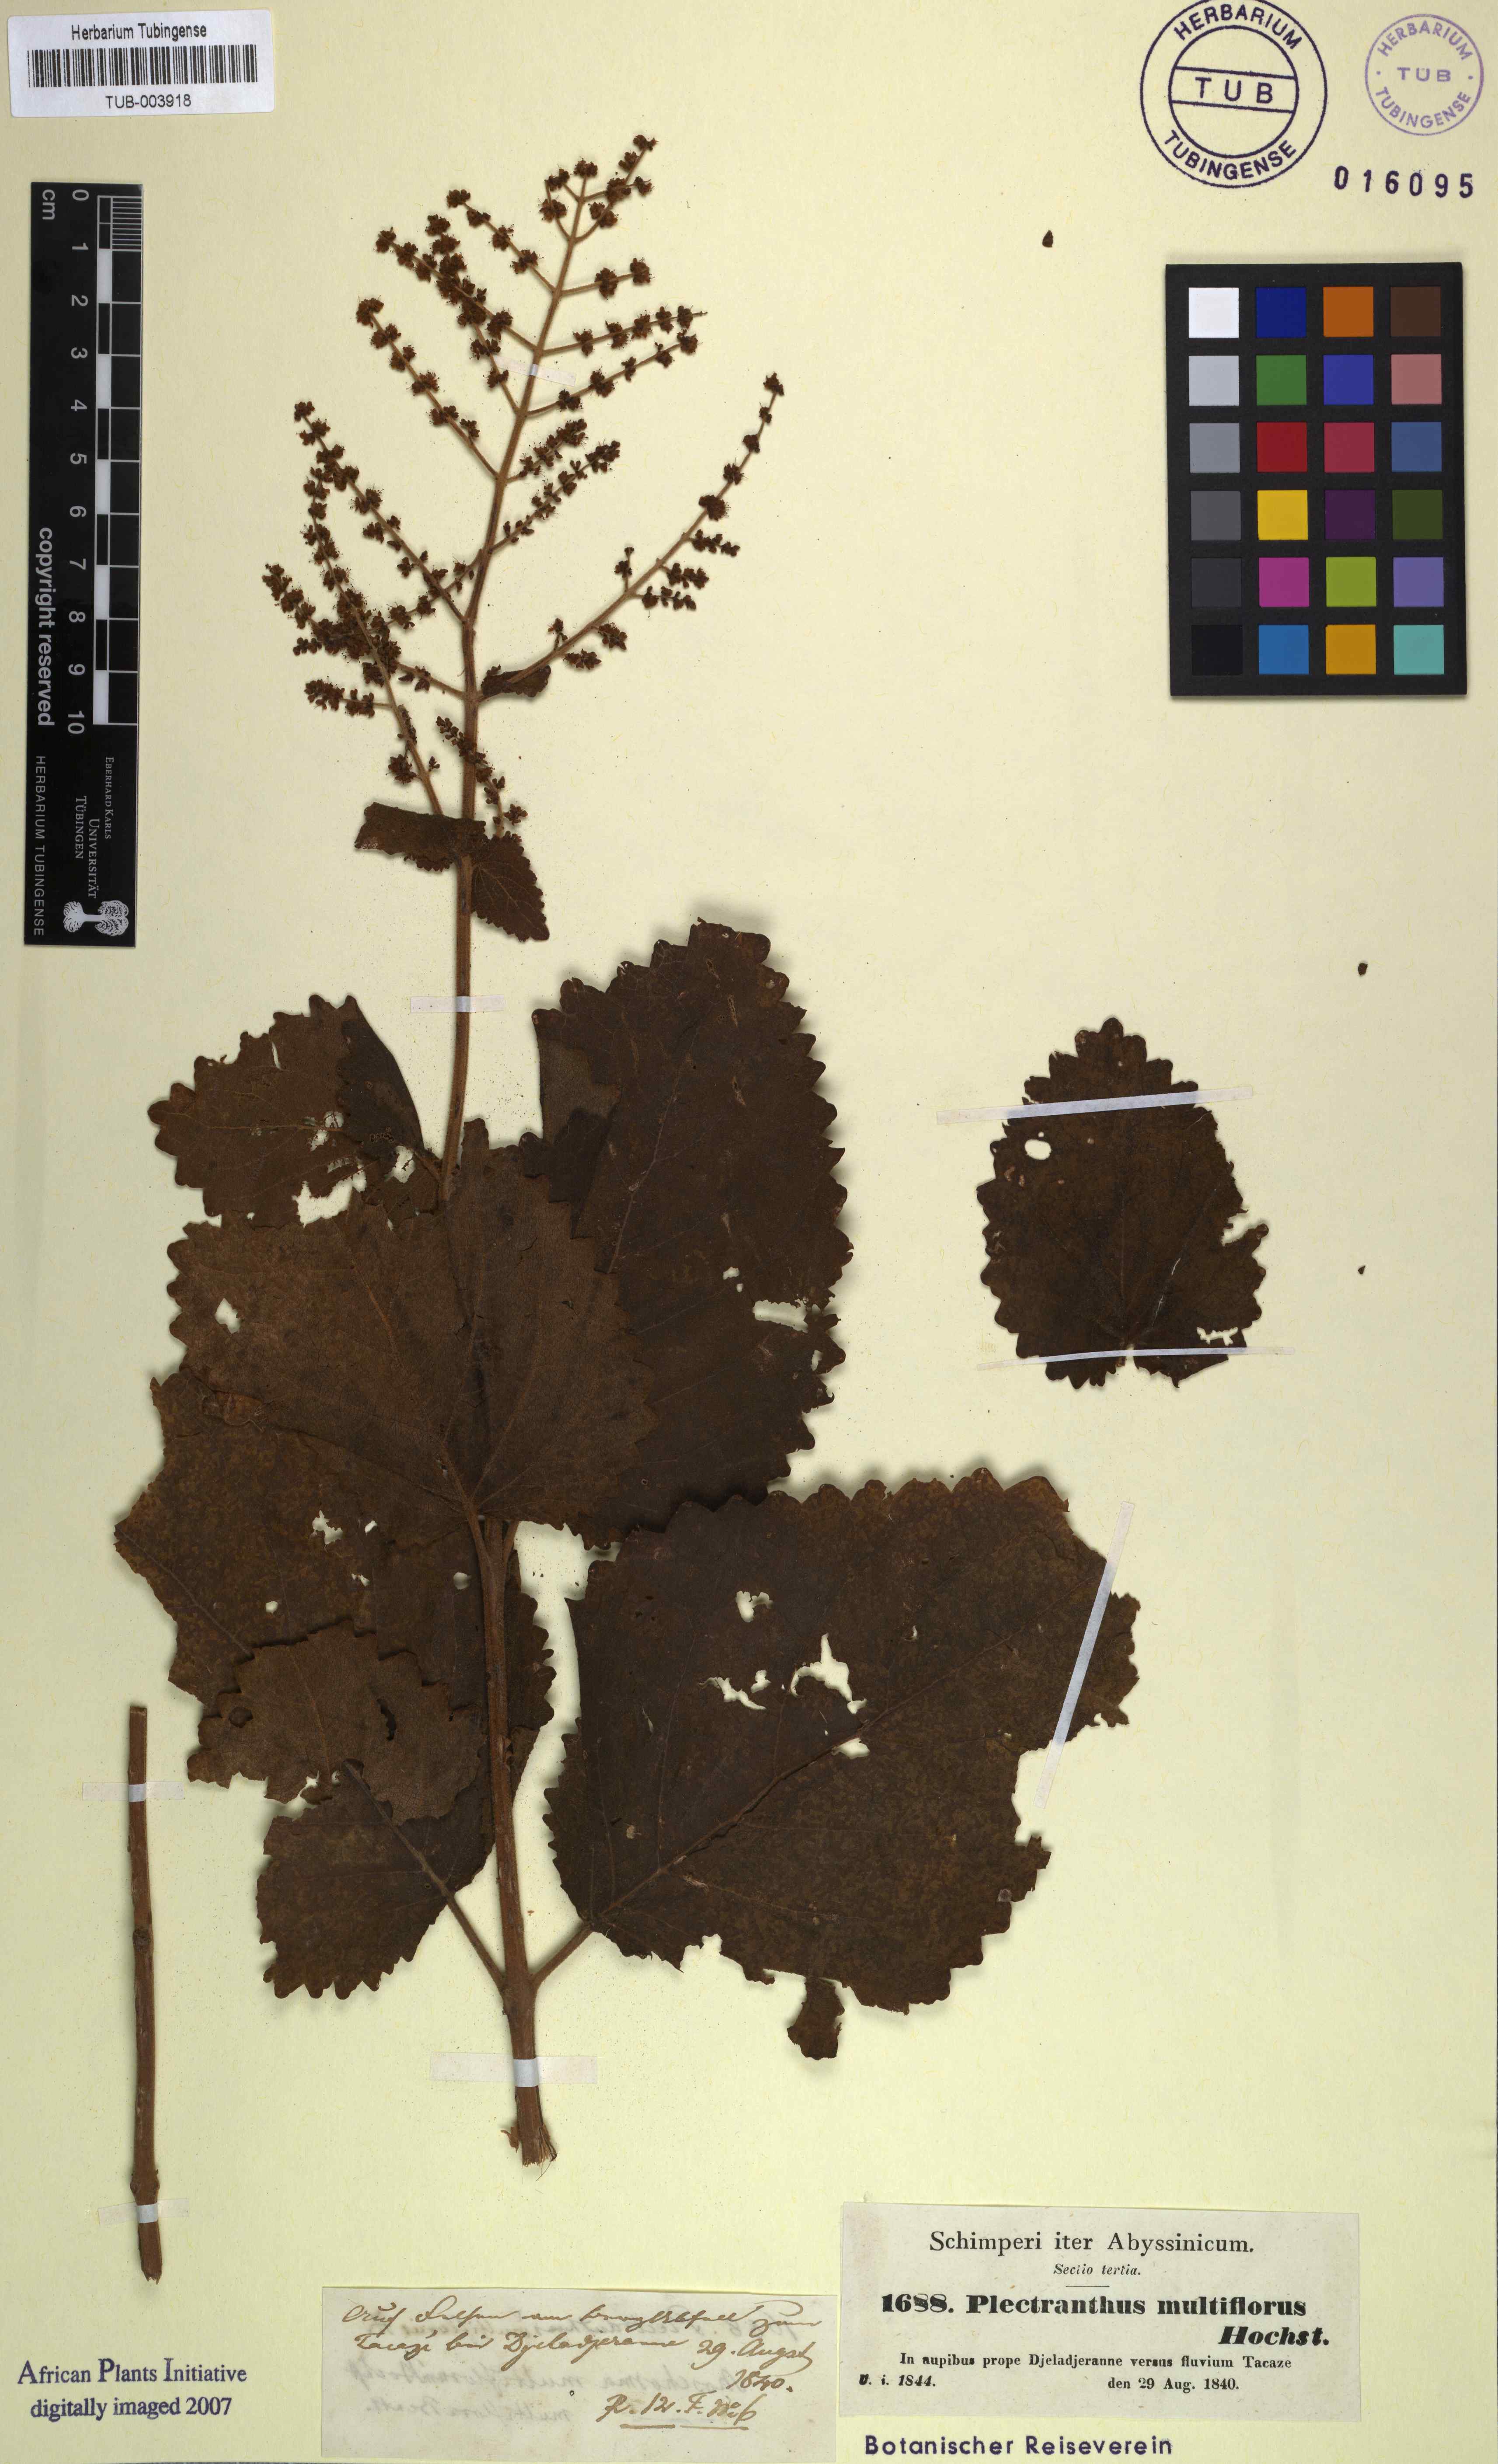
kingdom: Plantae
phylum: Tracheophyta
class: Magnoliopsida
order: Lamiales
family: Lamiaceae
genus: Tetradenia
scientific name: Tetradenia multiflora
